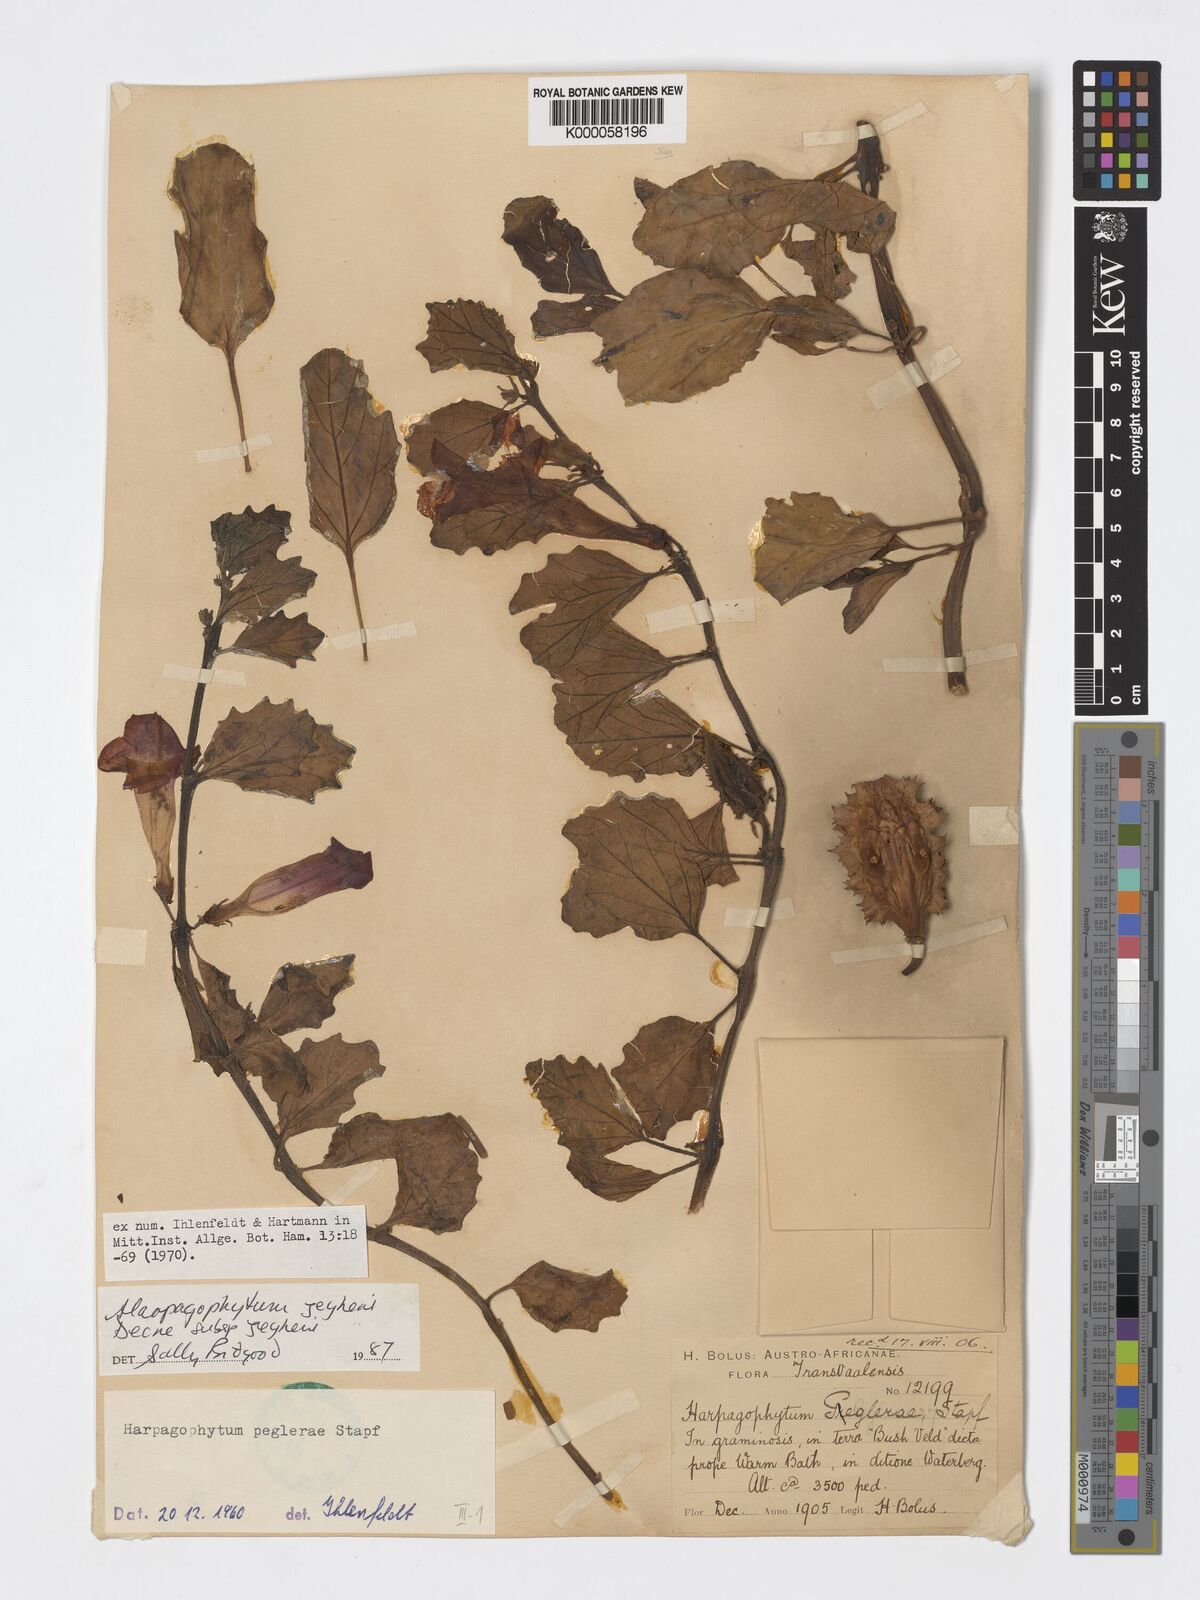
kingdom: Plantae
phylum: Tracheophyta
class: Magnoliopsida
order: Lamiales
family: Pedaliaceae
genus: Harpagophytum
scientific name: Harpagophytum zeyheri
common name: Grappleplant
